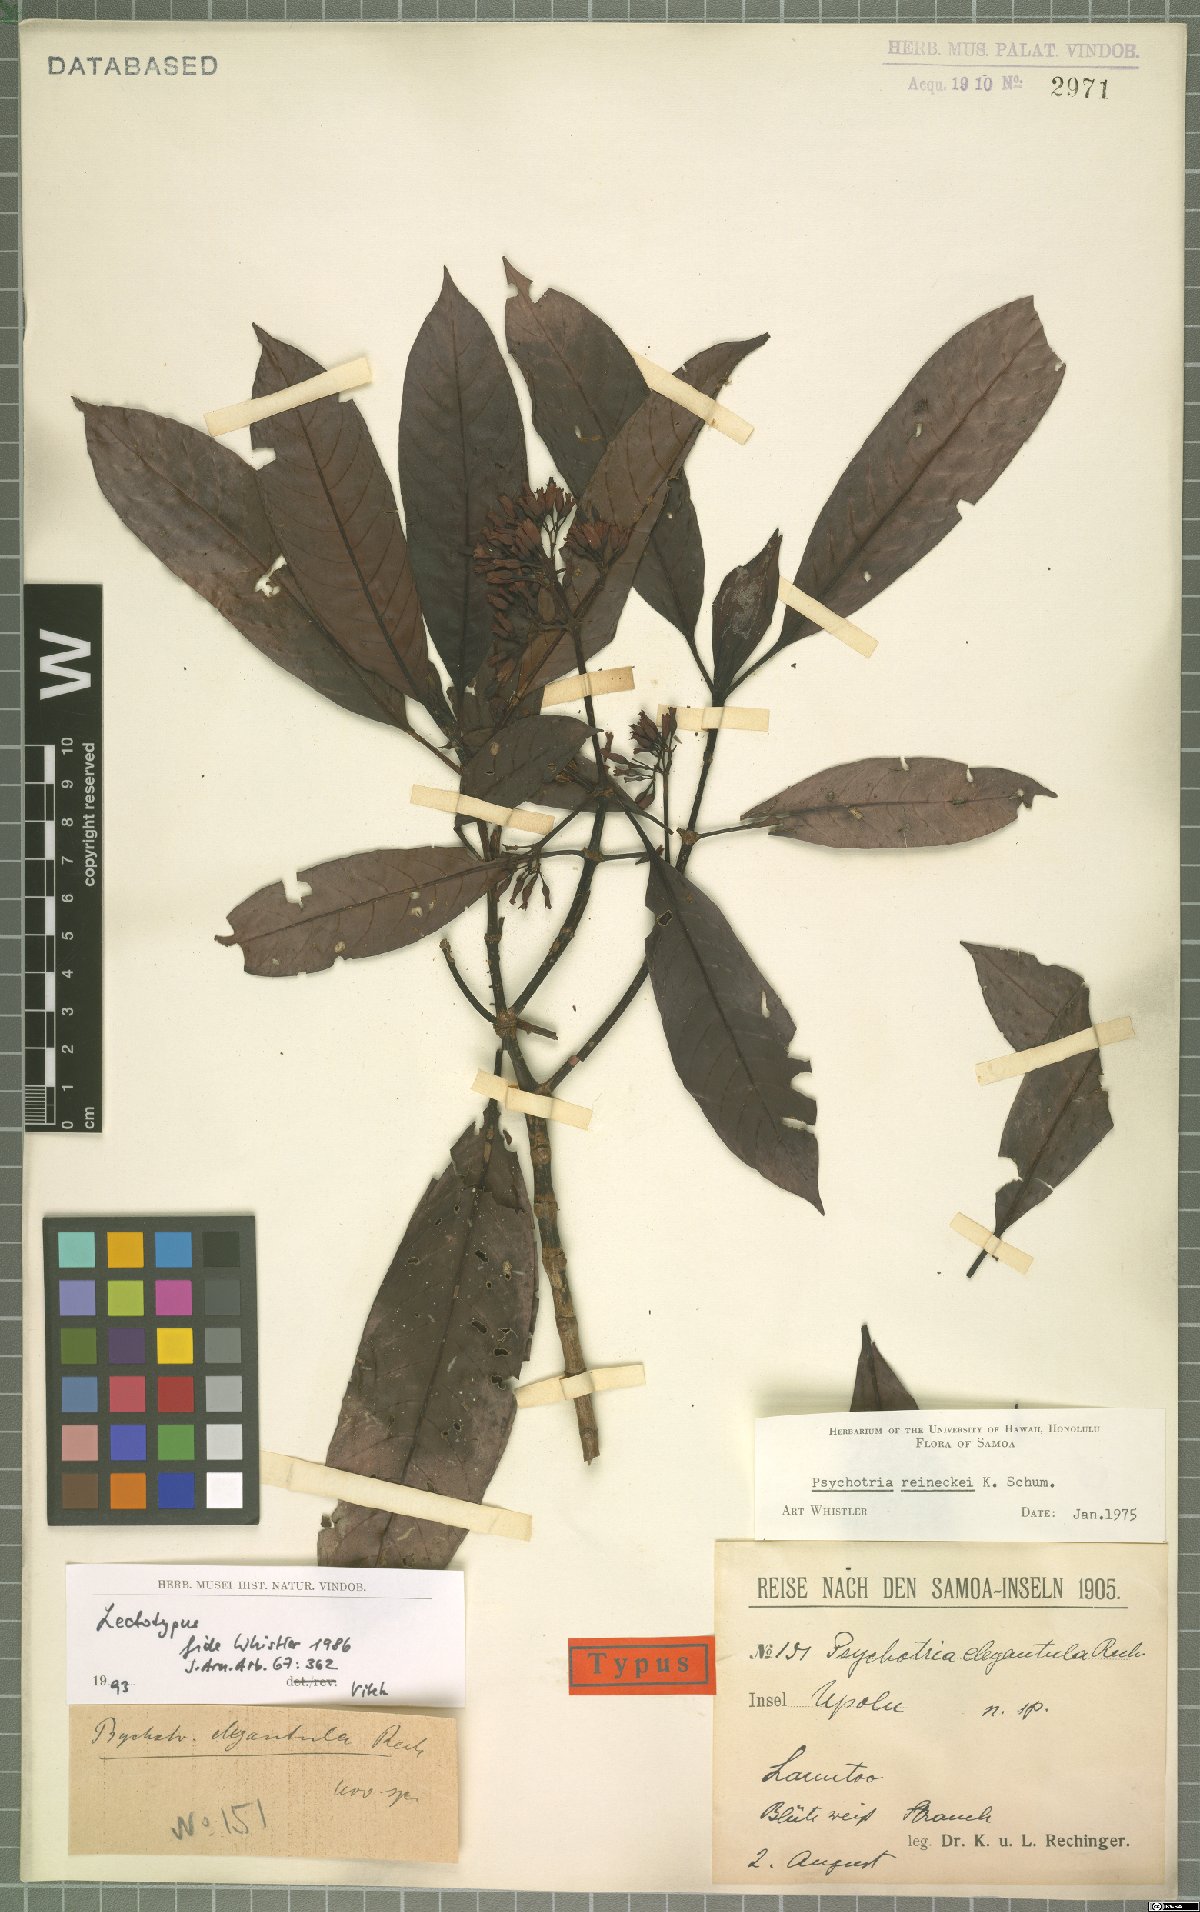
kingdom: Plantae
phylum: Tracheophyta
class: Magnoliopsida
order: Gentianales
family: Rubiaceae
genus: Psychotria
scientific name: Psychotria reineckei
